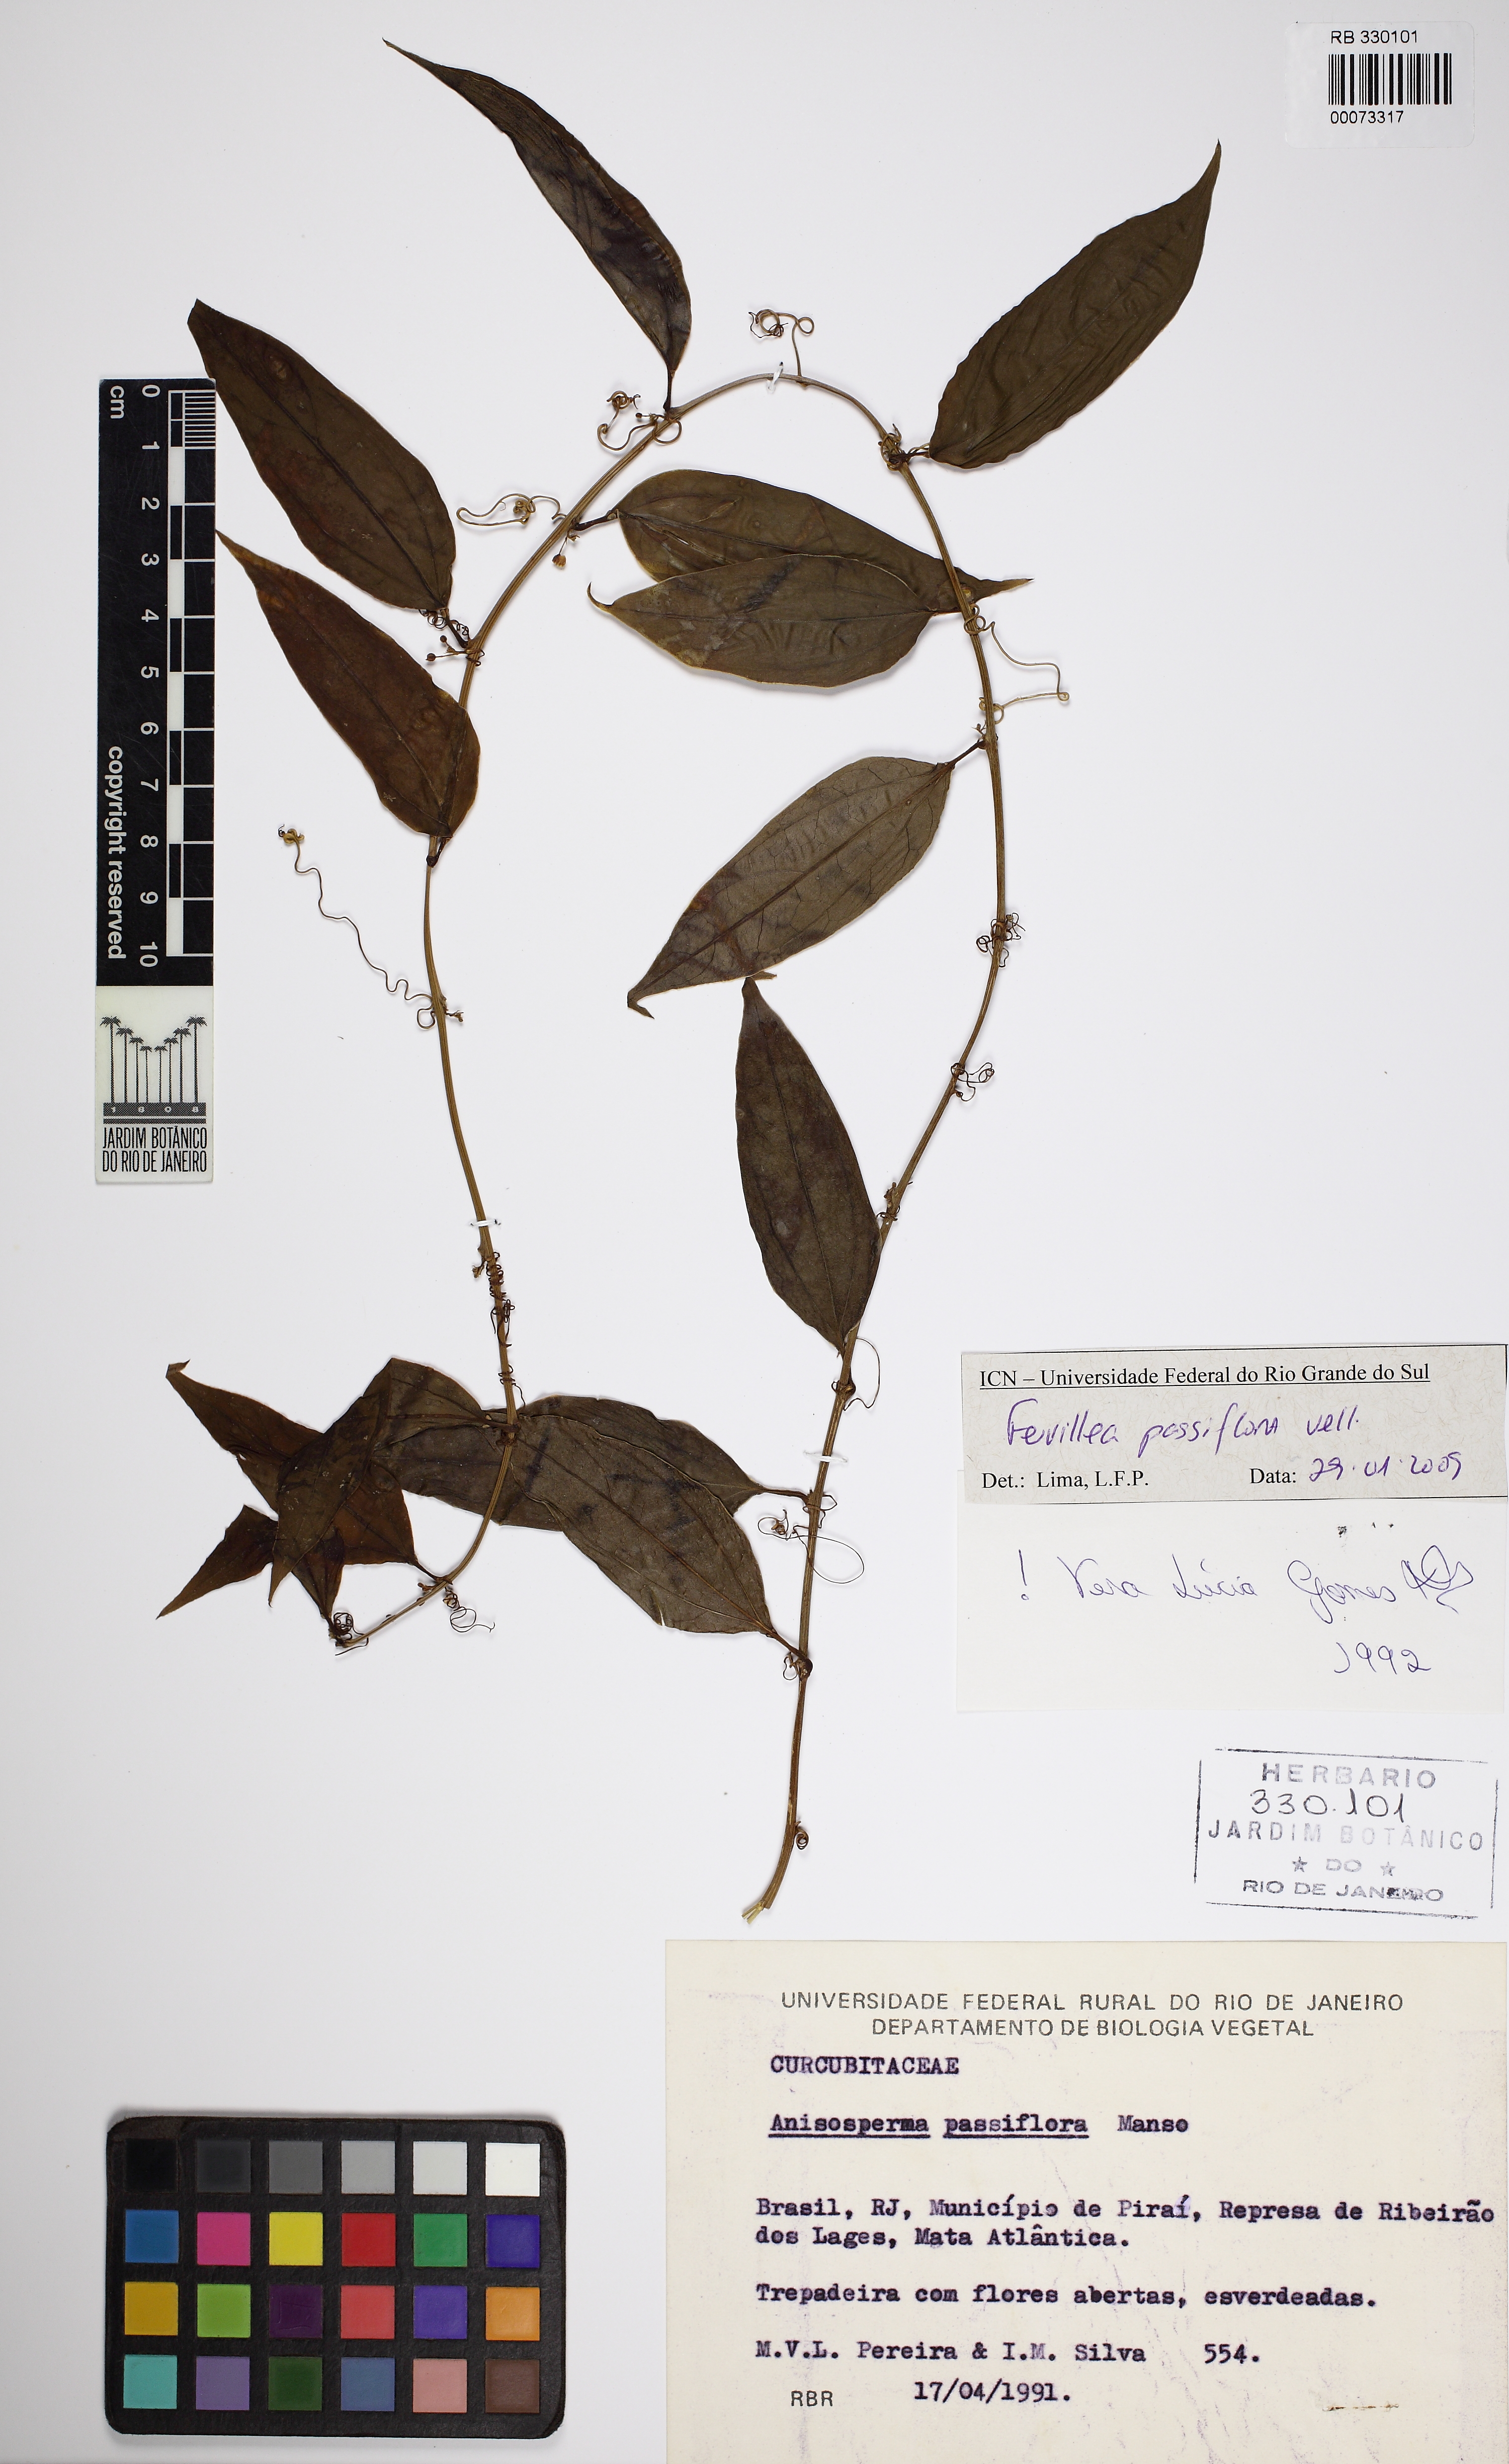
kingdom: Plantae
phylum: Tracheophyta
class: Magnoliopsida
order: Cucurbitales
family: Cucurbitaceae
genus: Anisosperma
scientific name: Anisosperma passiflora
